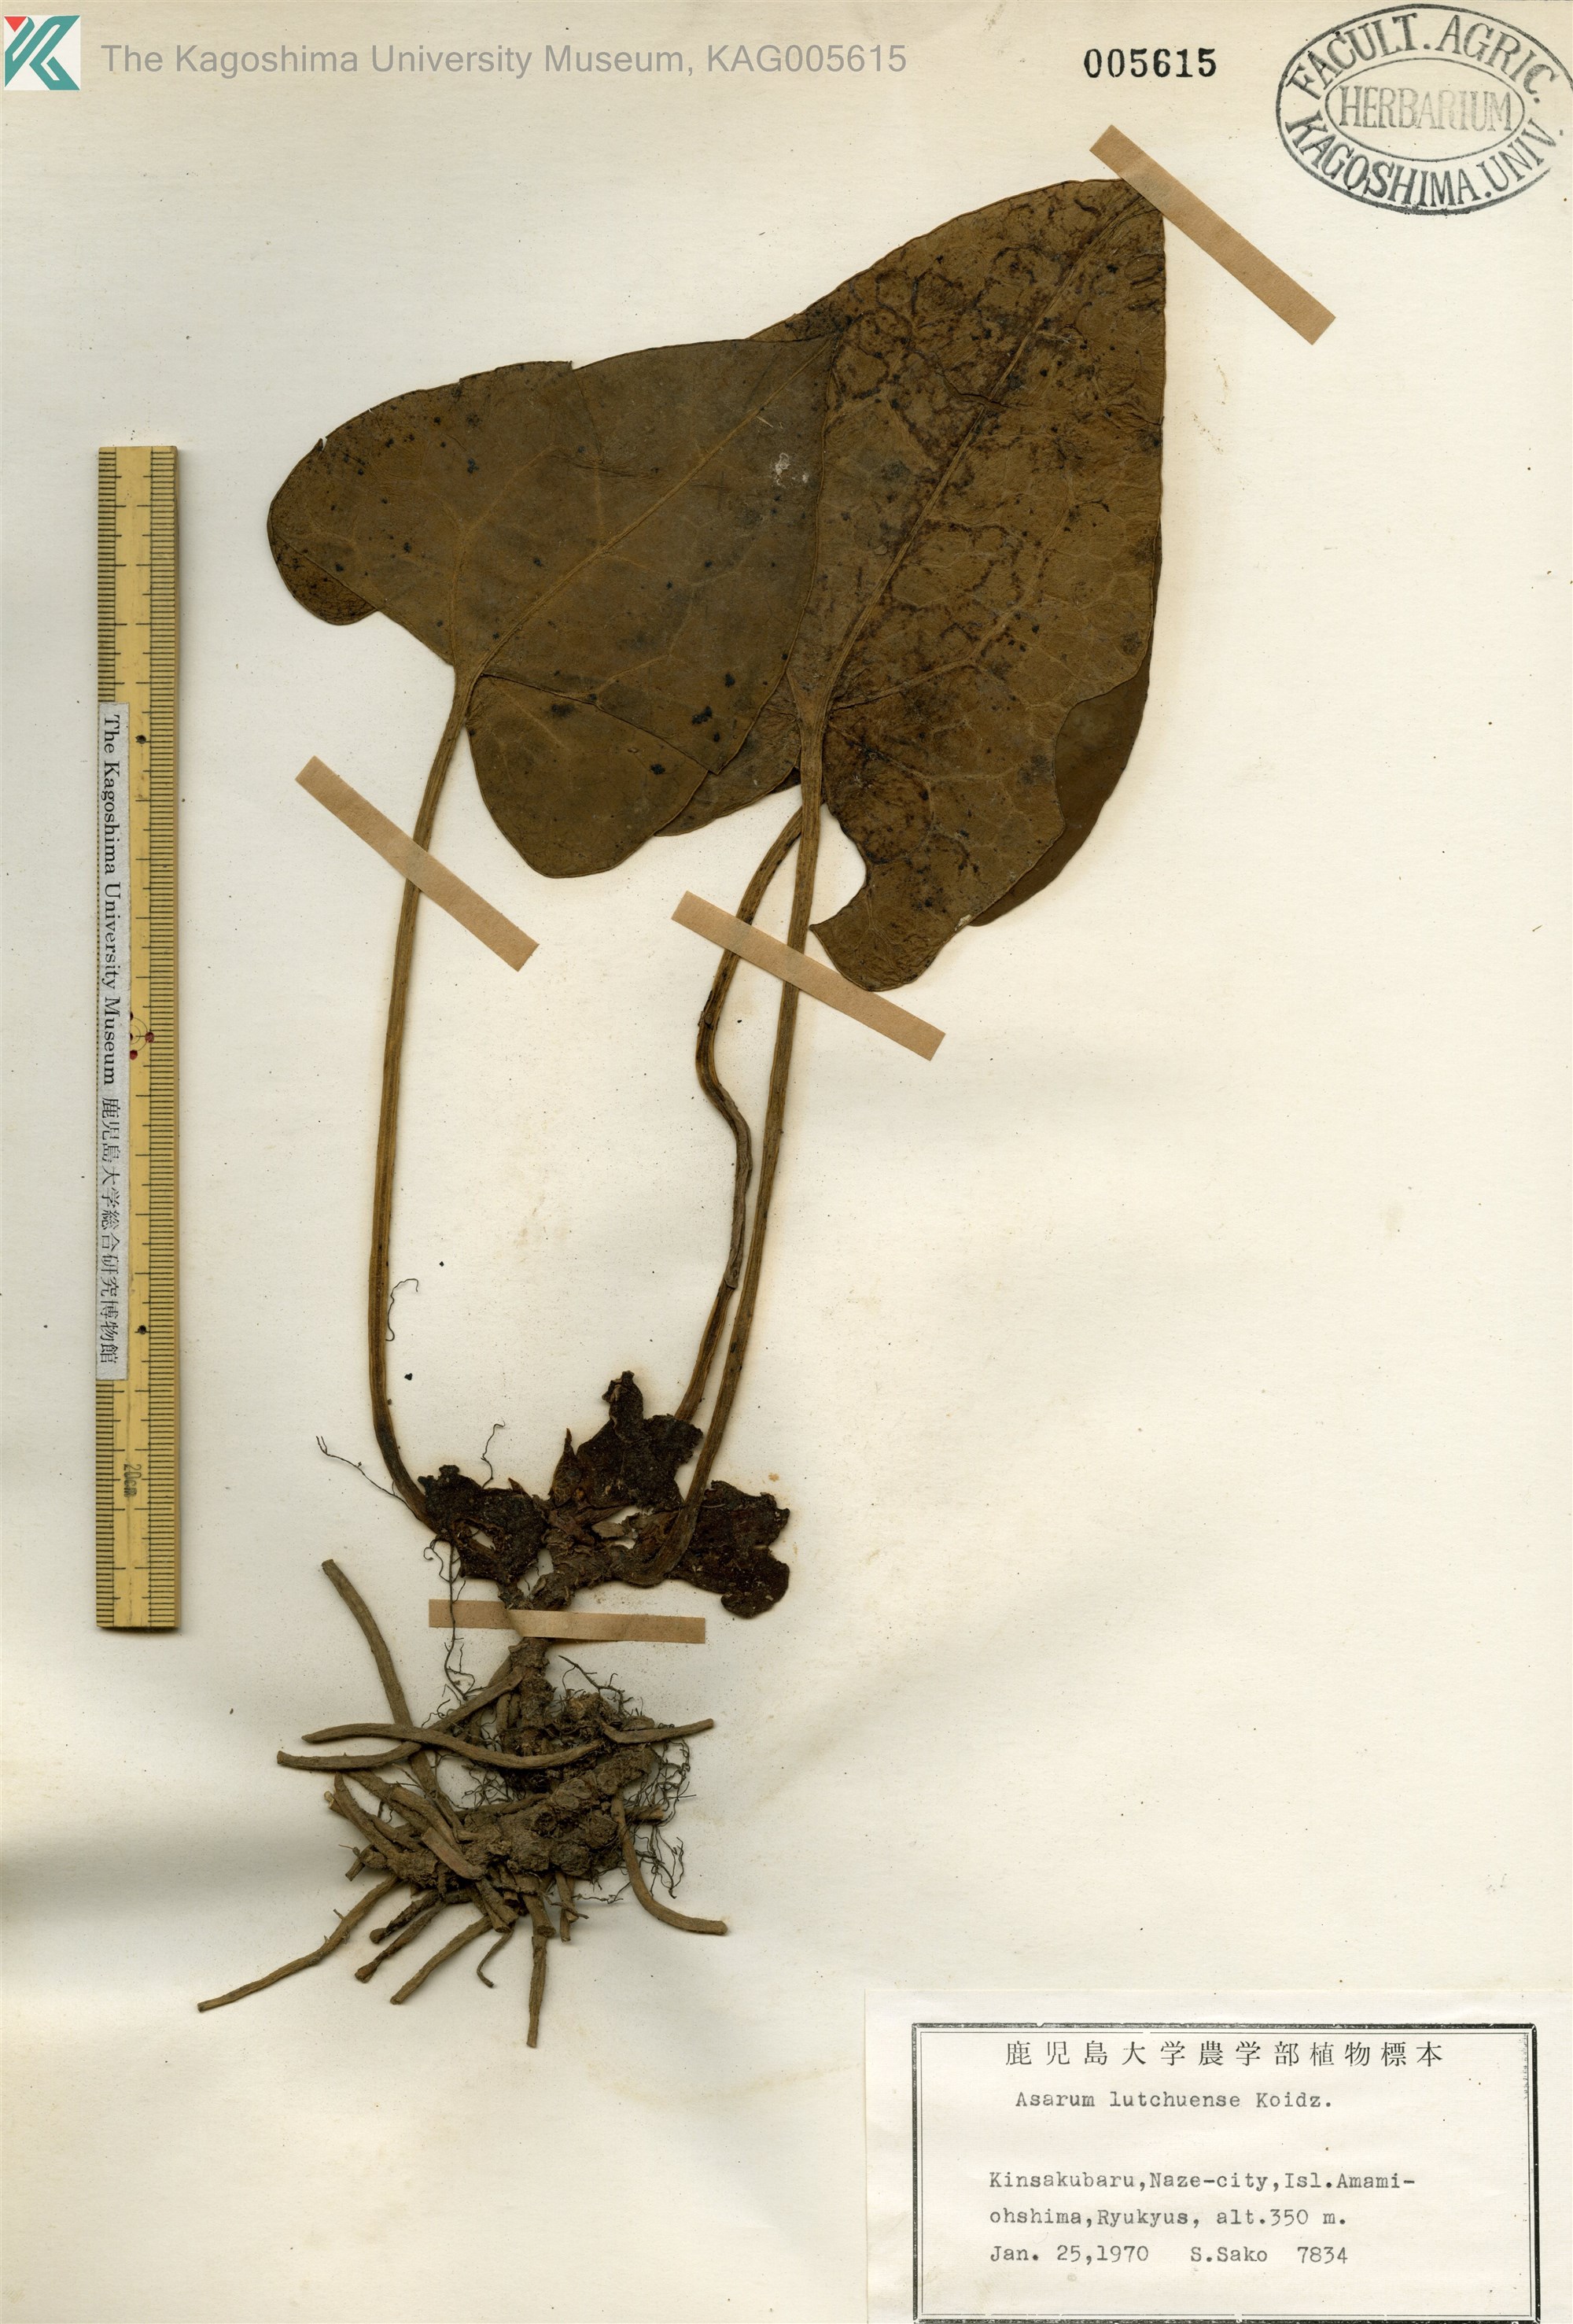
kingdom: Plantae
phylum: Tracheophyta
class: Magnoliopsida
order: Piperales
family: Aristolochiaceae
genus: Asarum
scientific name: Asarum lutchuense
